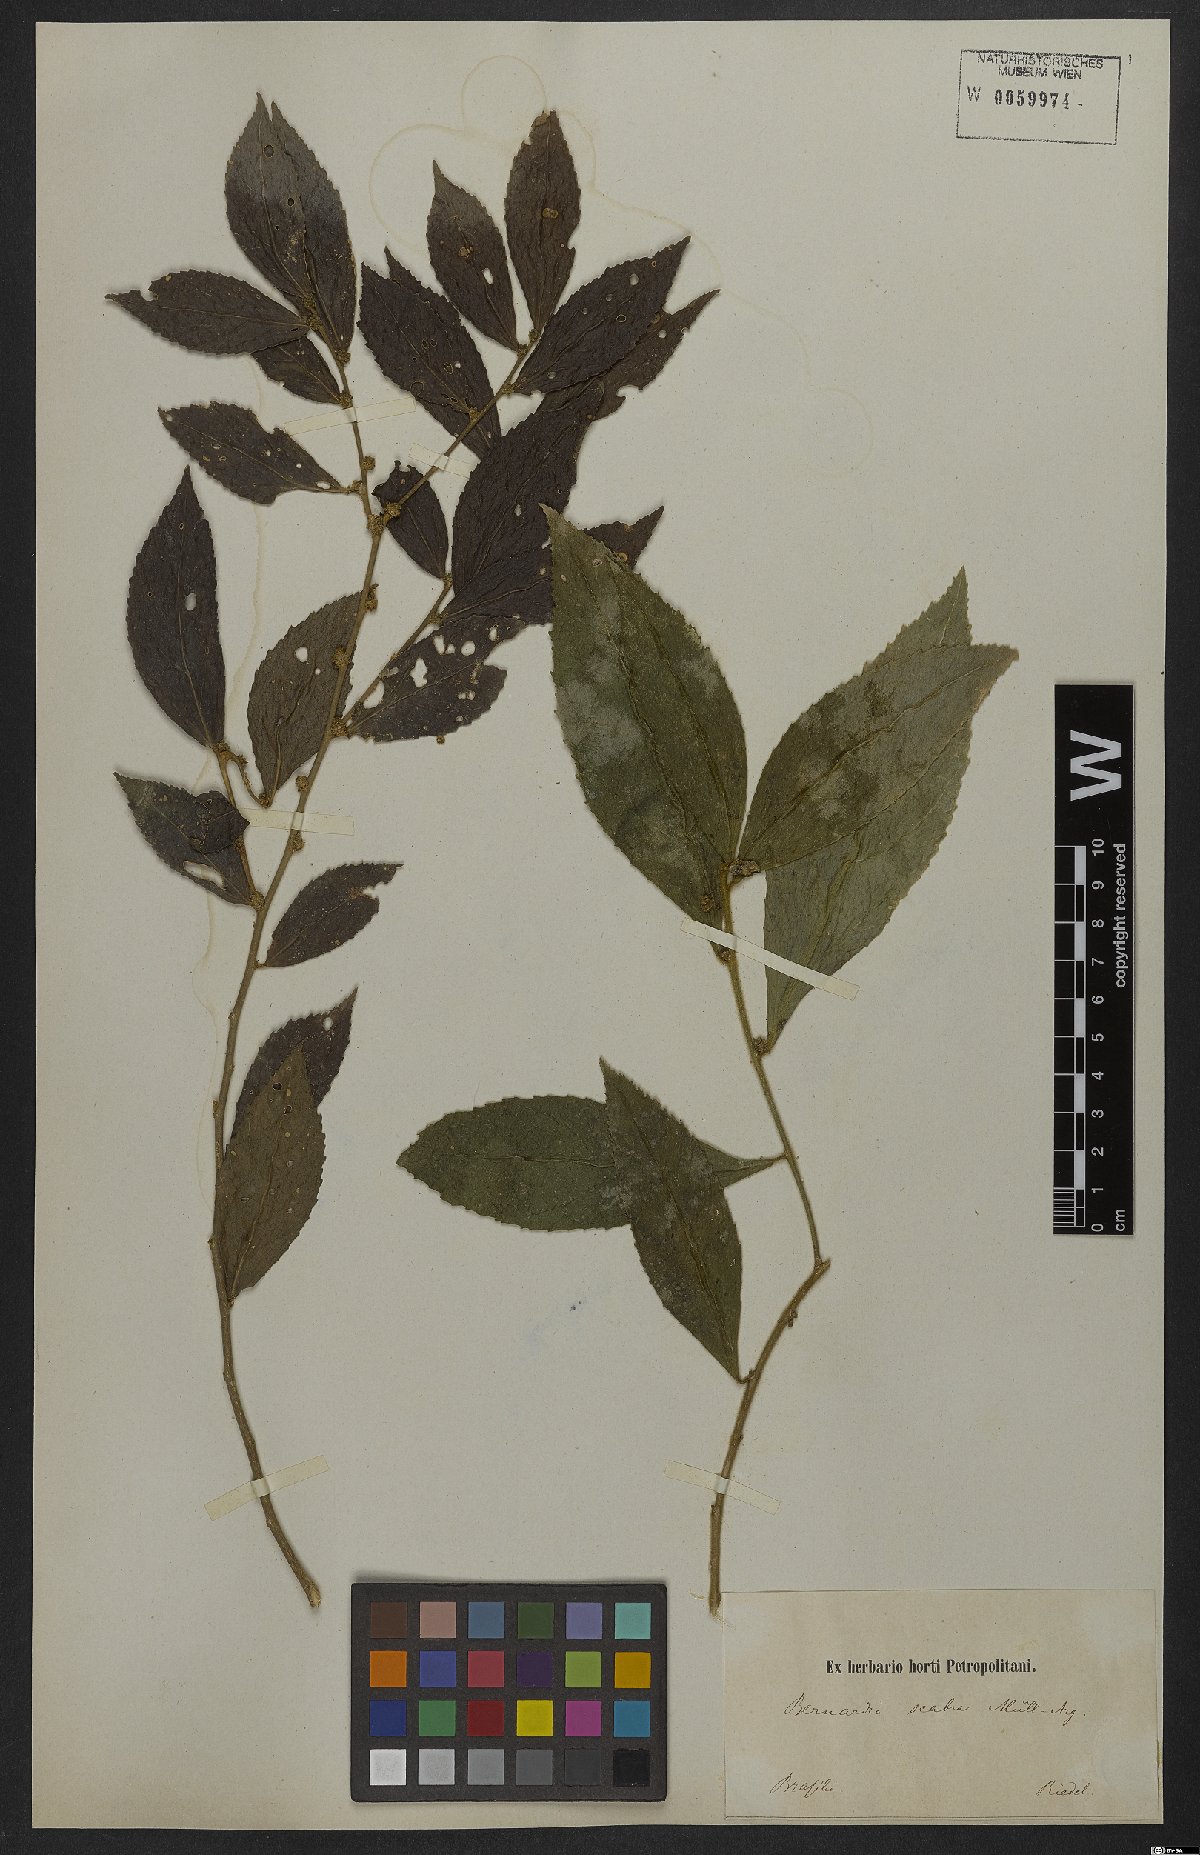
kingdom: Plantae
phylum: Tracheophyta
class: Magnoliopsida
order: Malpighiales
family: Euphorbiaceae
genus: Bernardia
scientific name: Bernardia scabra
